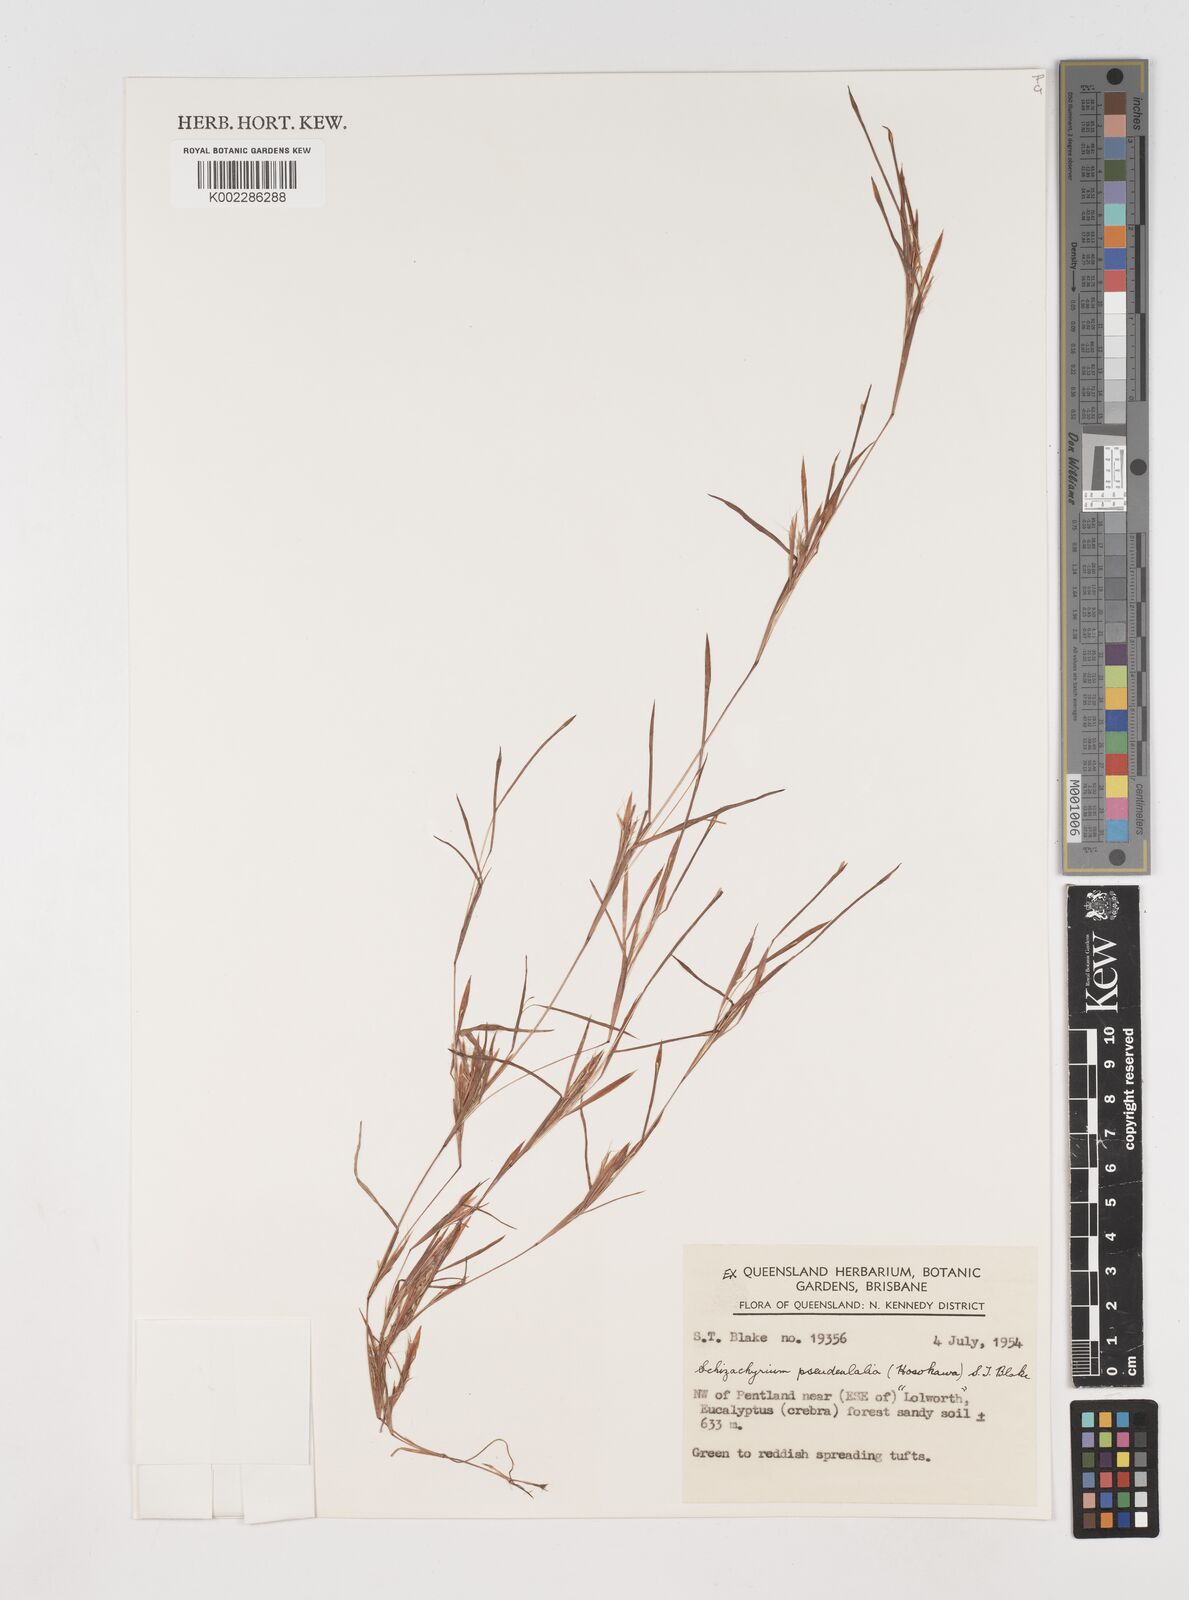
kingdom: Plantae
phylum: Tracheophyta
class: Liliopsida
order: Poales
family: Poaceae
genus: Schizachyrium
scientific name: Schizachyrium pseudeulalia
